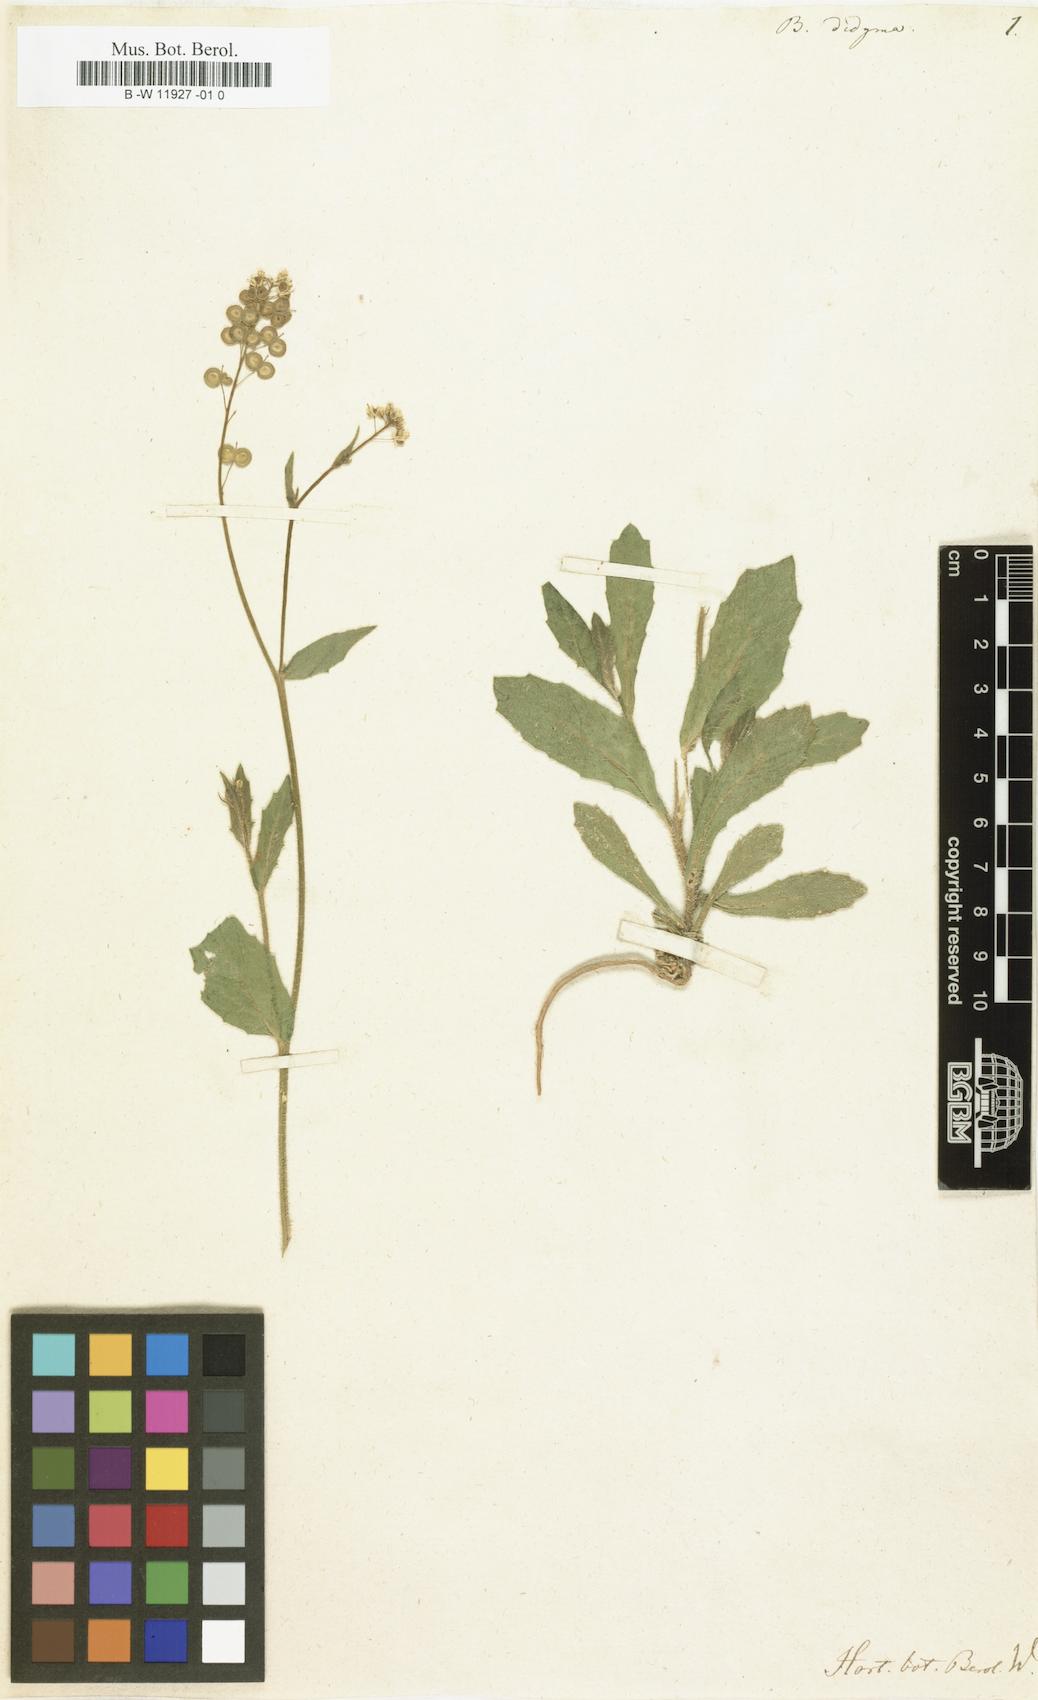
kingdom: Plantae
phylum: Tracheophyta
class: Magnoliopsida
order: Brassicales
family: Brassicaceae
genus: Biscutella
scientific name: Biscutella didyma
